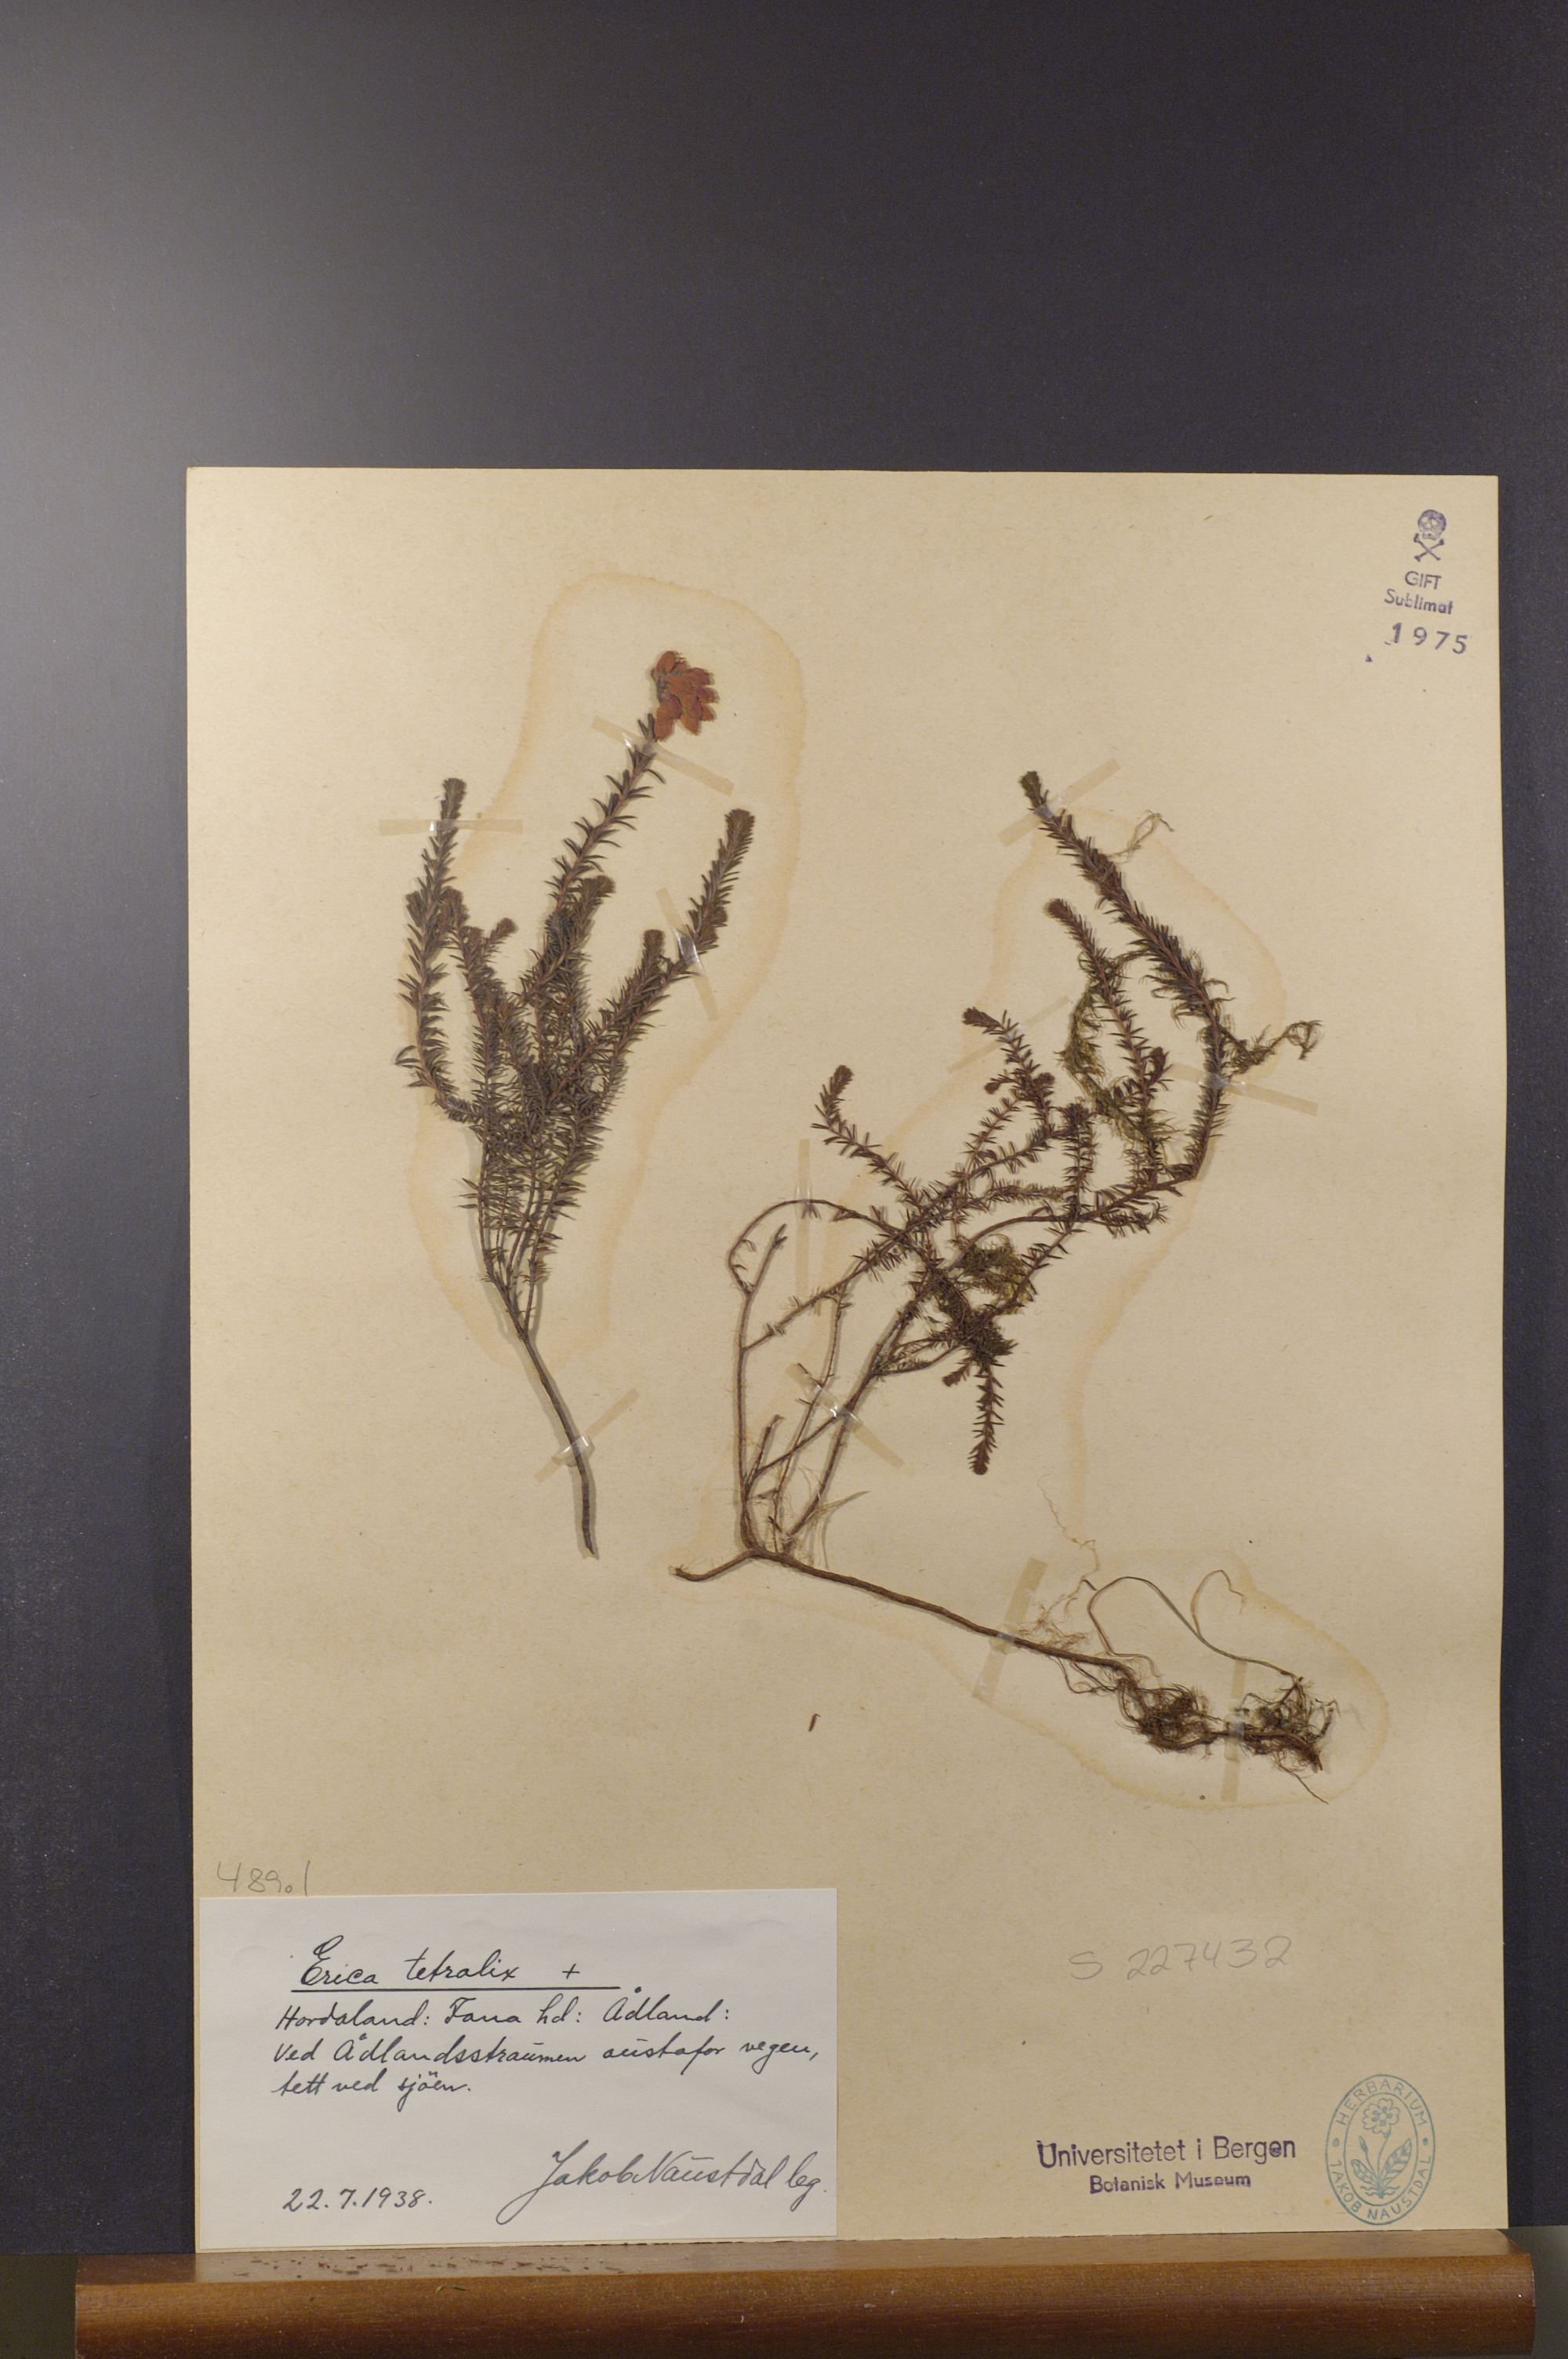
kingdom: Plantae
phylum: Tracheophyta
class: Magnoliopsida
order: Ericales
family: Ericaceae
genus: Erica
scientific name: Erica tetralix
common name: Cross-leaved heath
